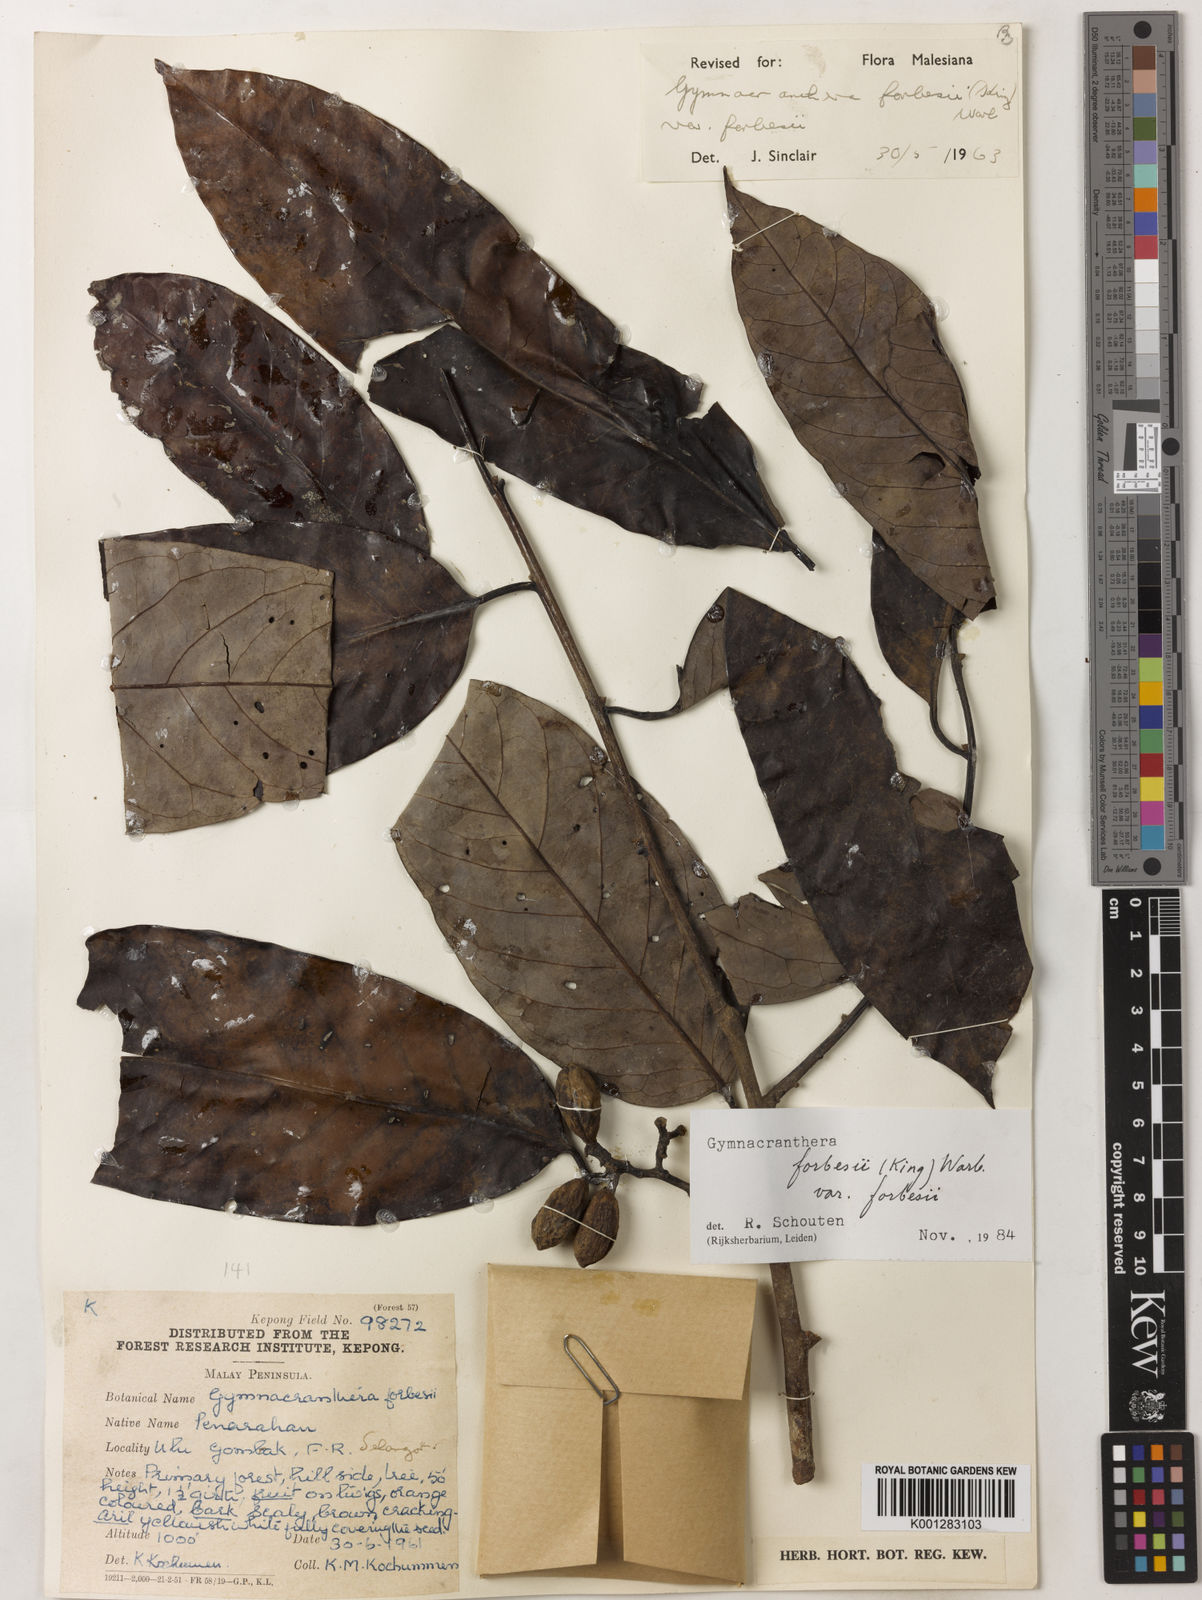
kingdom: Plantae
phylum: Tracheophyta
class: Magnoliopsida
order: Magnoliales
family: Myristicaceae
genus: Gymnacranthera
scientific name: Gymnacranthera forbesii
